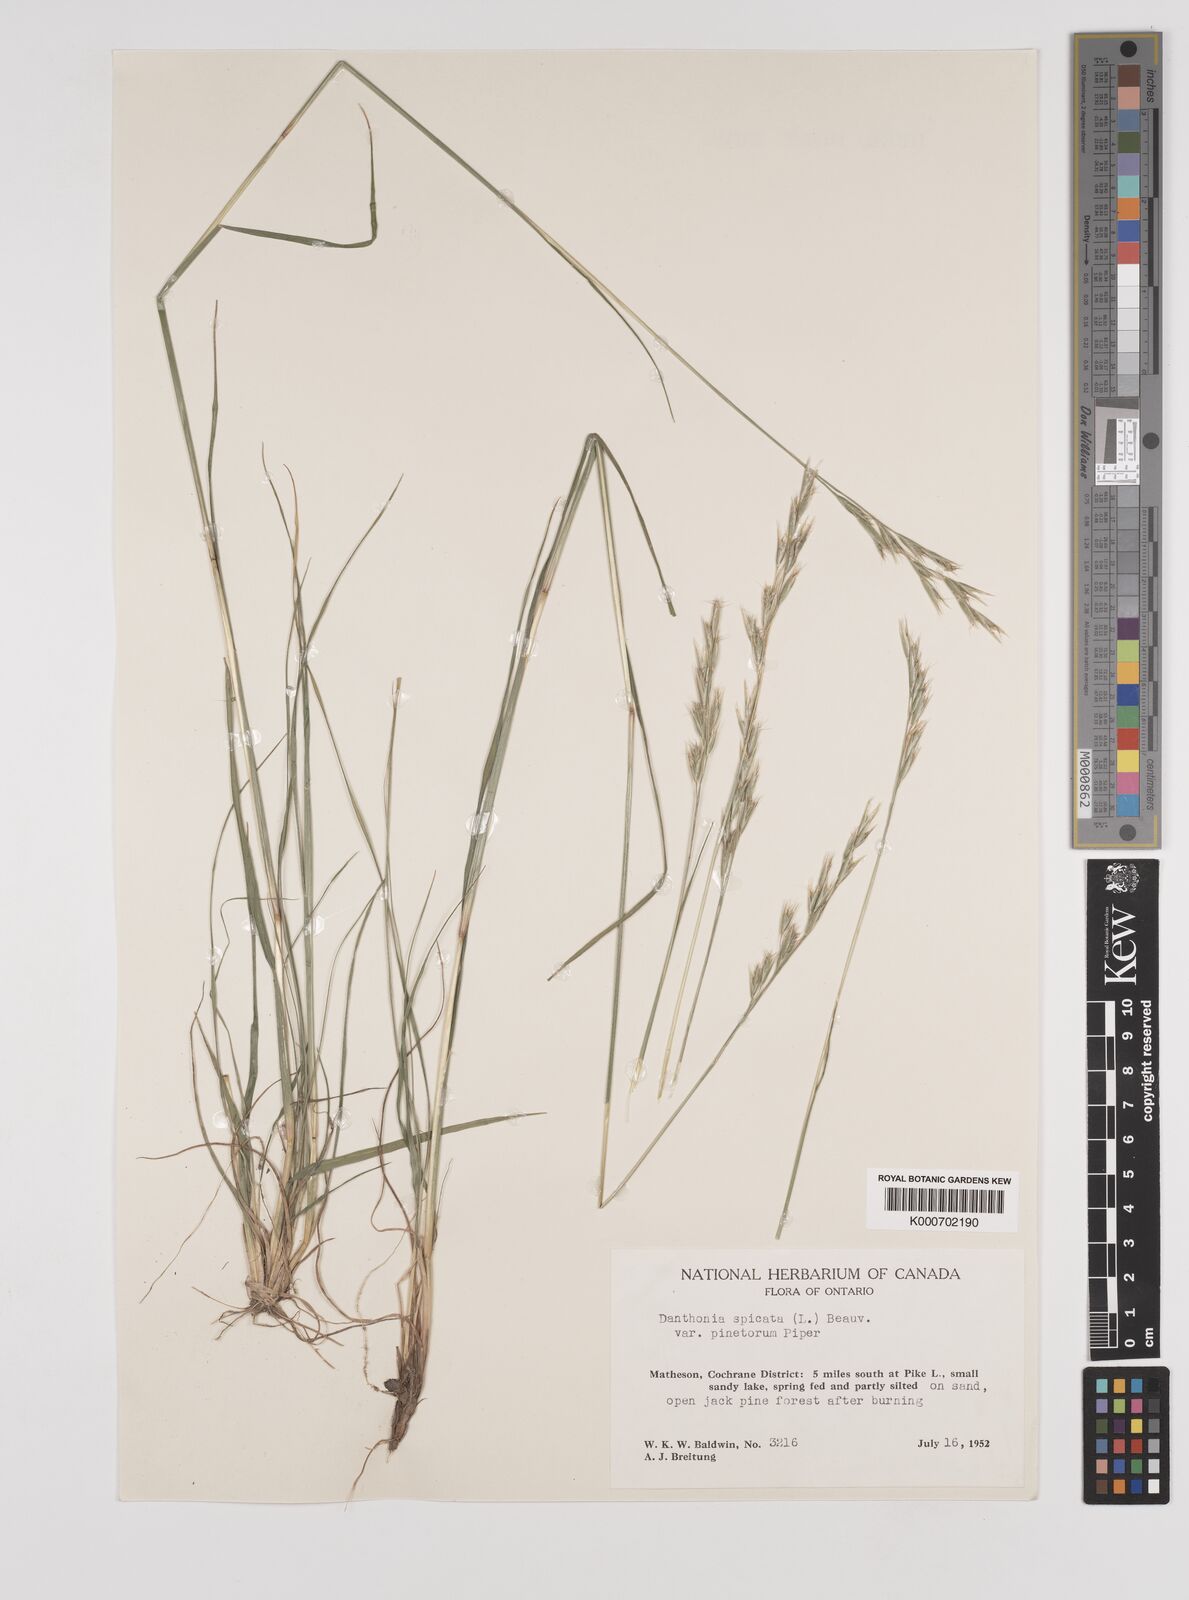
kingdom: Plantae
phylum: Tracheophyta
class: Liliopsida
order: Poales
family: Poaceae
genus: Danthonia
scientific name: Danthonia spicata
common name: Common wild oatgrass
